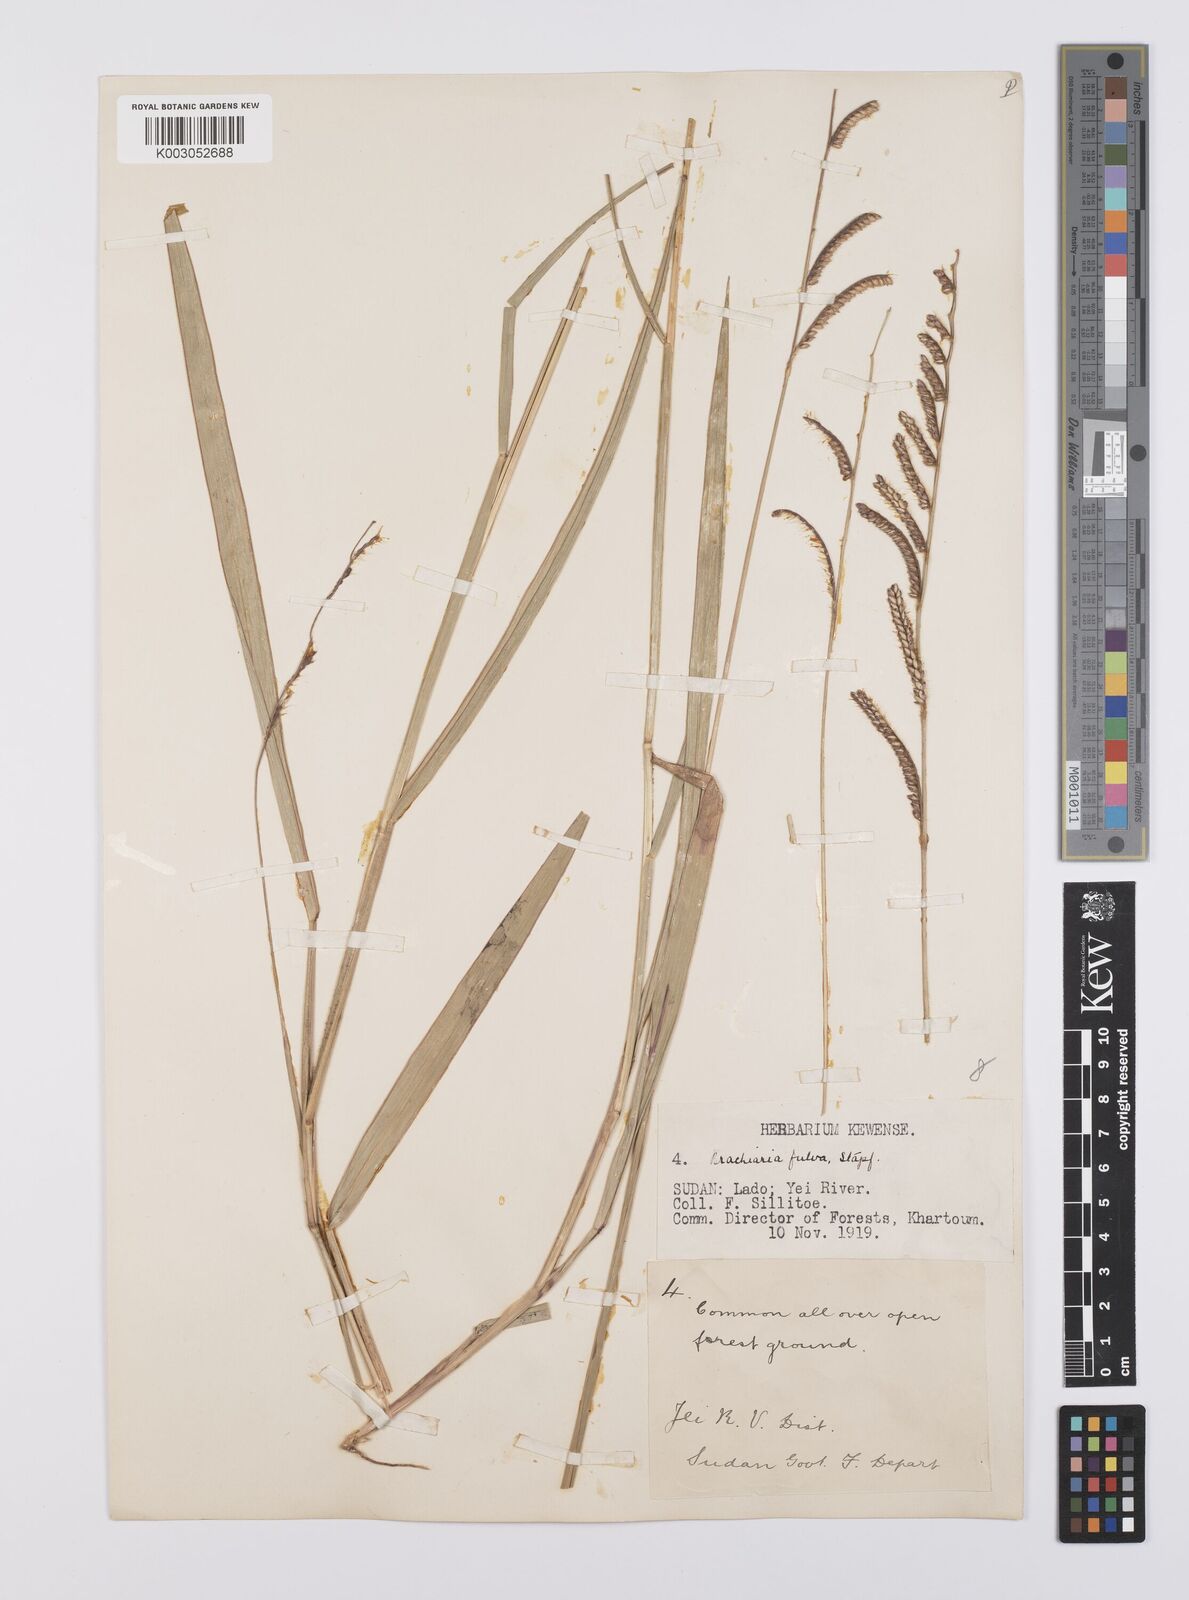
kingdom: Plantae
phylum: Tracheophyta
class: Liliopsida
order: Poales
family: Poaceae
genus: Urochloa
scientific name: Urochloa jubata
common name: Buffalograss
